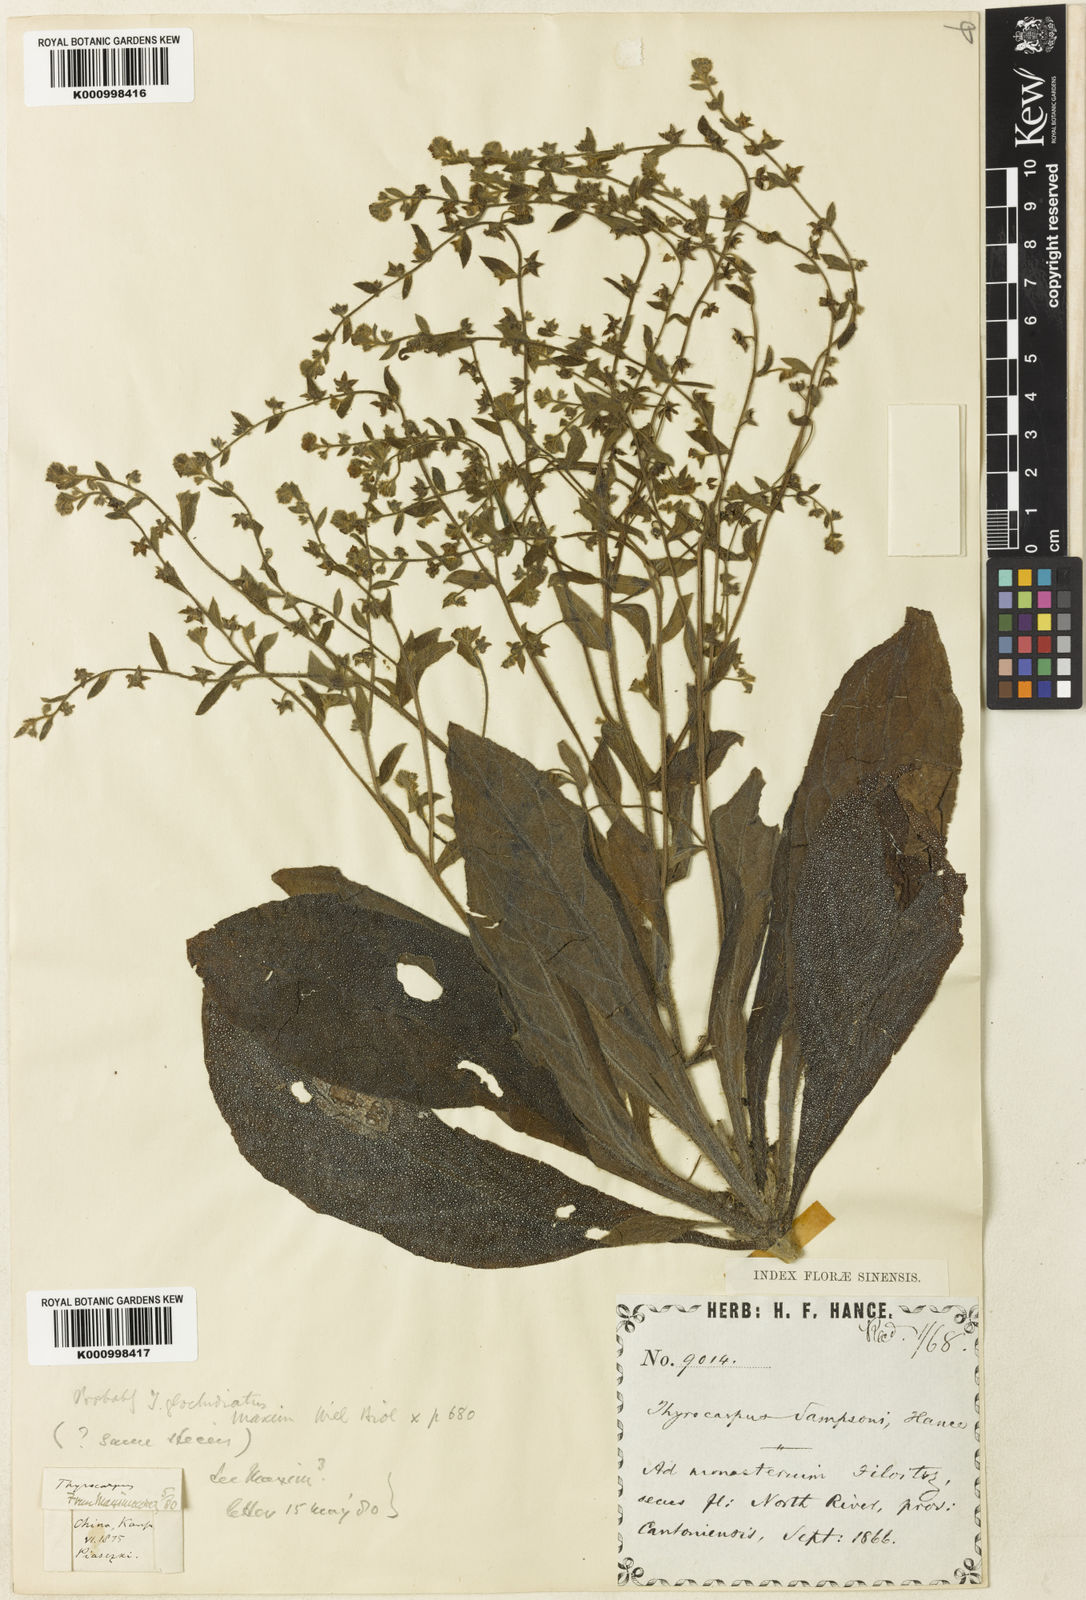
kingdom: Plantae
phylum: Tracheophyta
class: Magnoliopsida
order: Boraginales
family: Boraginaceae
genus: Thyrocarpus
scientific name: Thyrocarpus sampsonii
